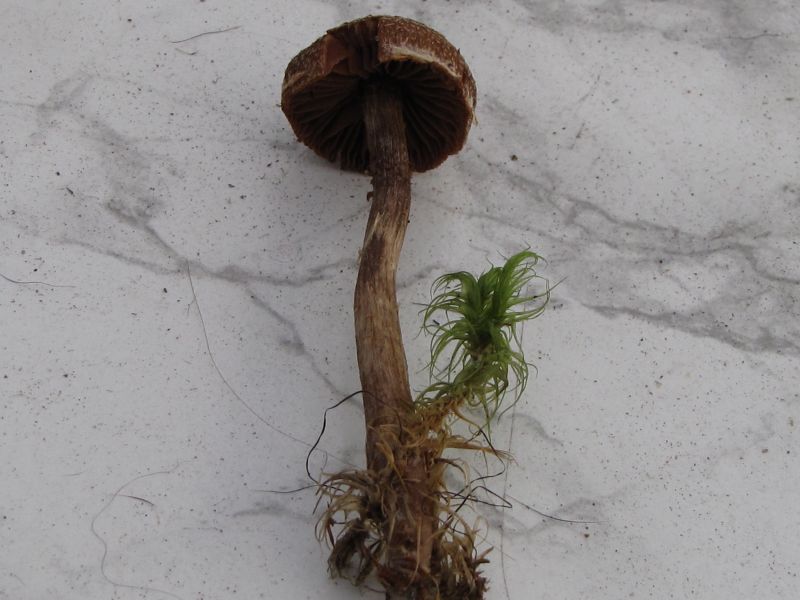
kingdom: Fungi
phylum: Basidiomycota
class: Agaricomycetes
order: Agaricales
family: Cortinariaceae
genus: Cortinarius
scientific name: Cortinarius
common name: pelargonie-slørhat
